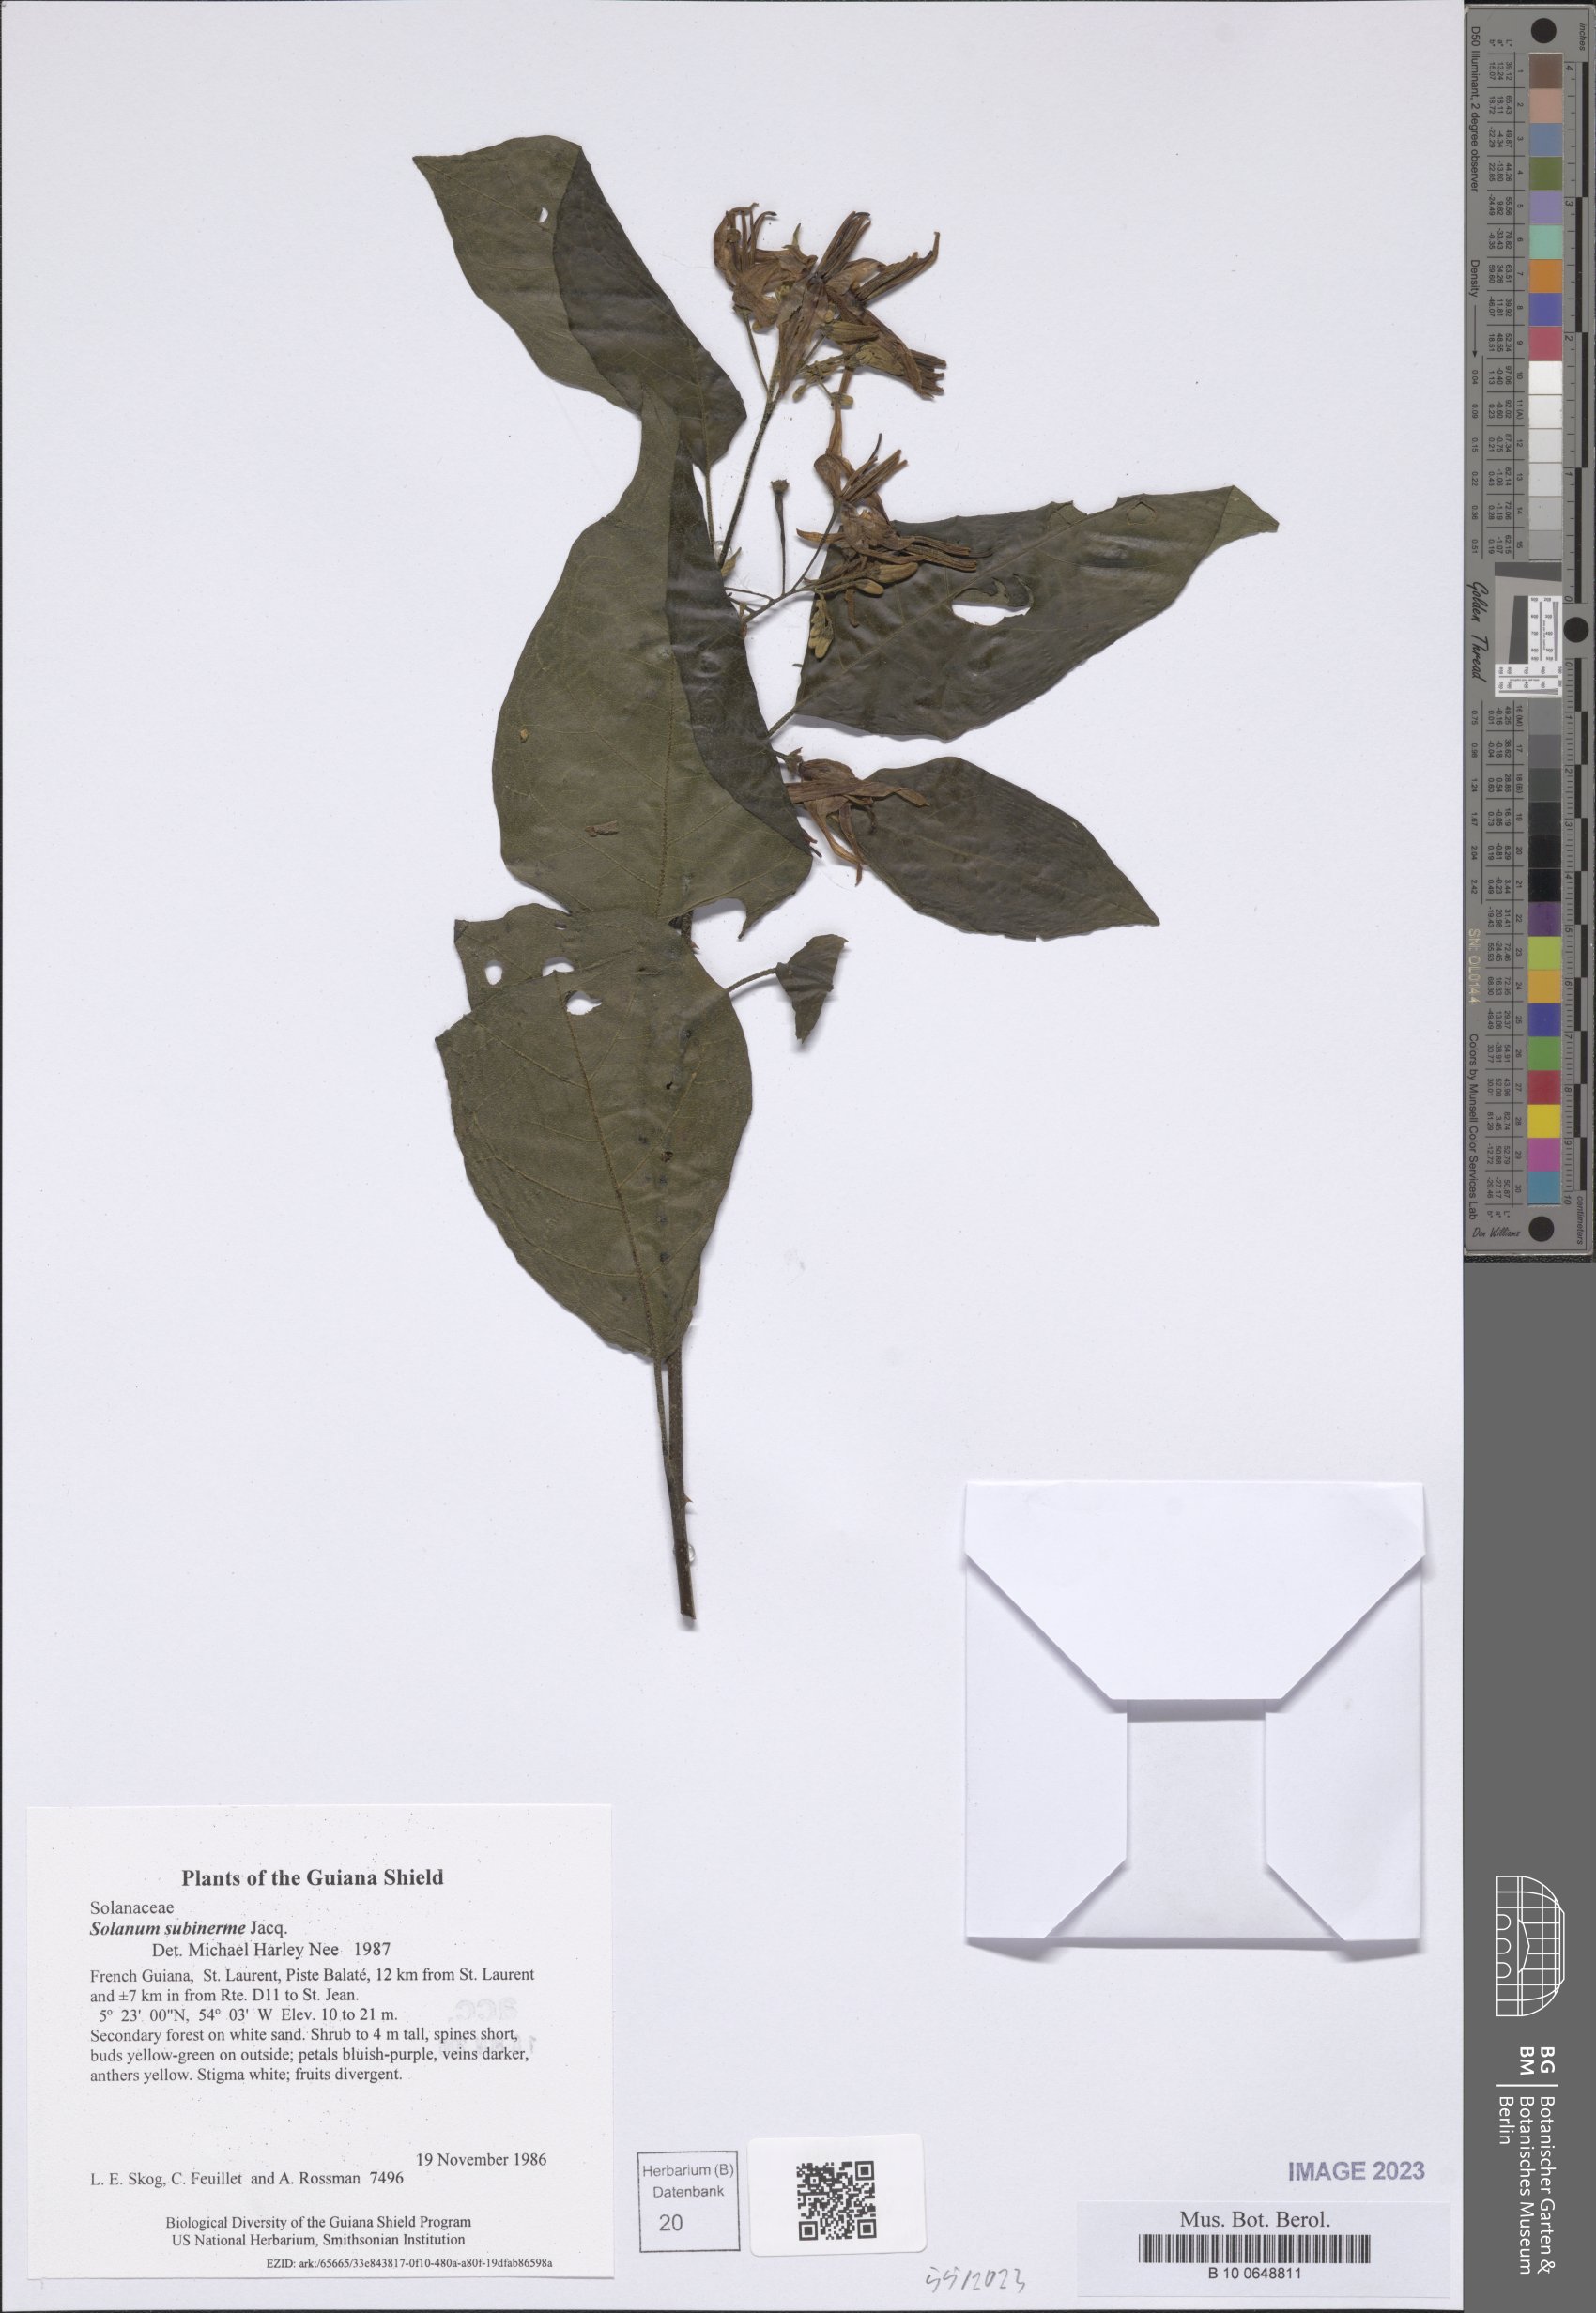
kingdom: Plantae
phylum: Tracheophyta
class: Magnoliopsida
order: Solanales
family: Solanaceae
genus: Solanum
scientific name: Solanum subinerme
